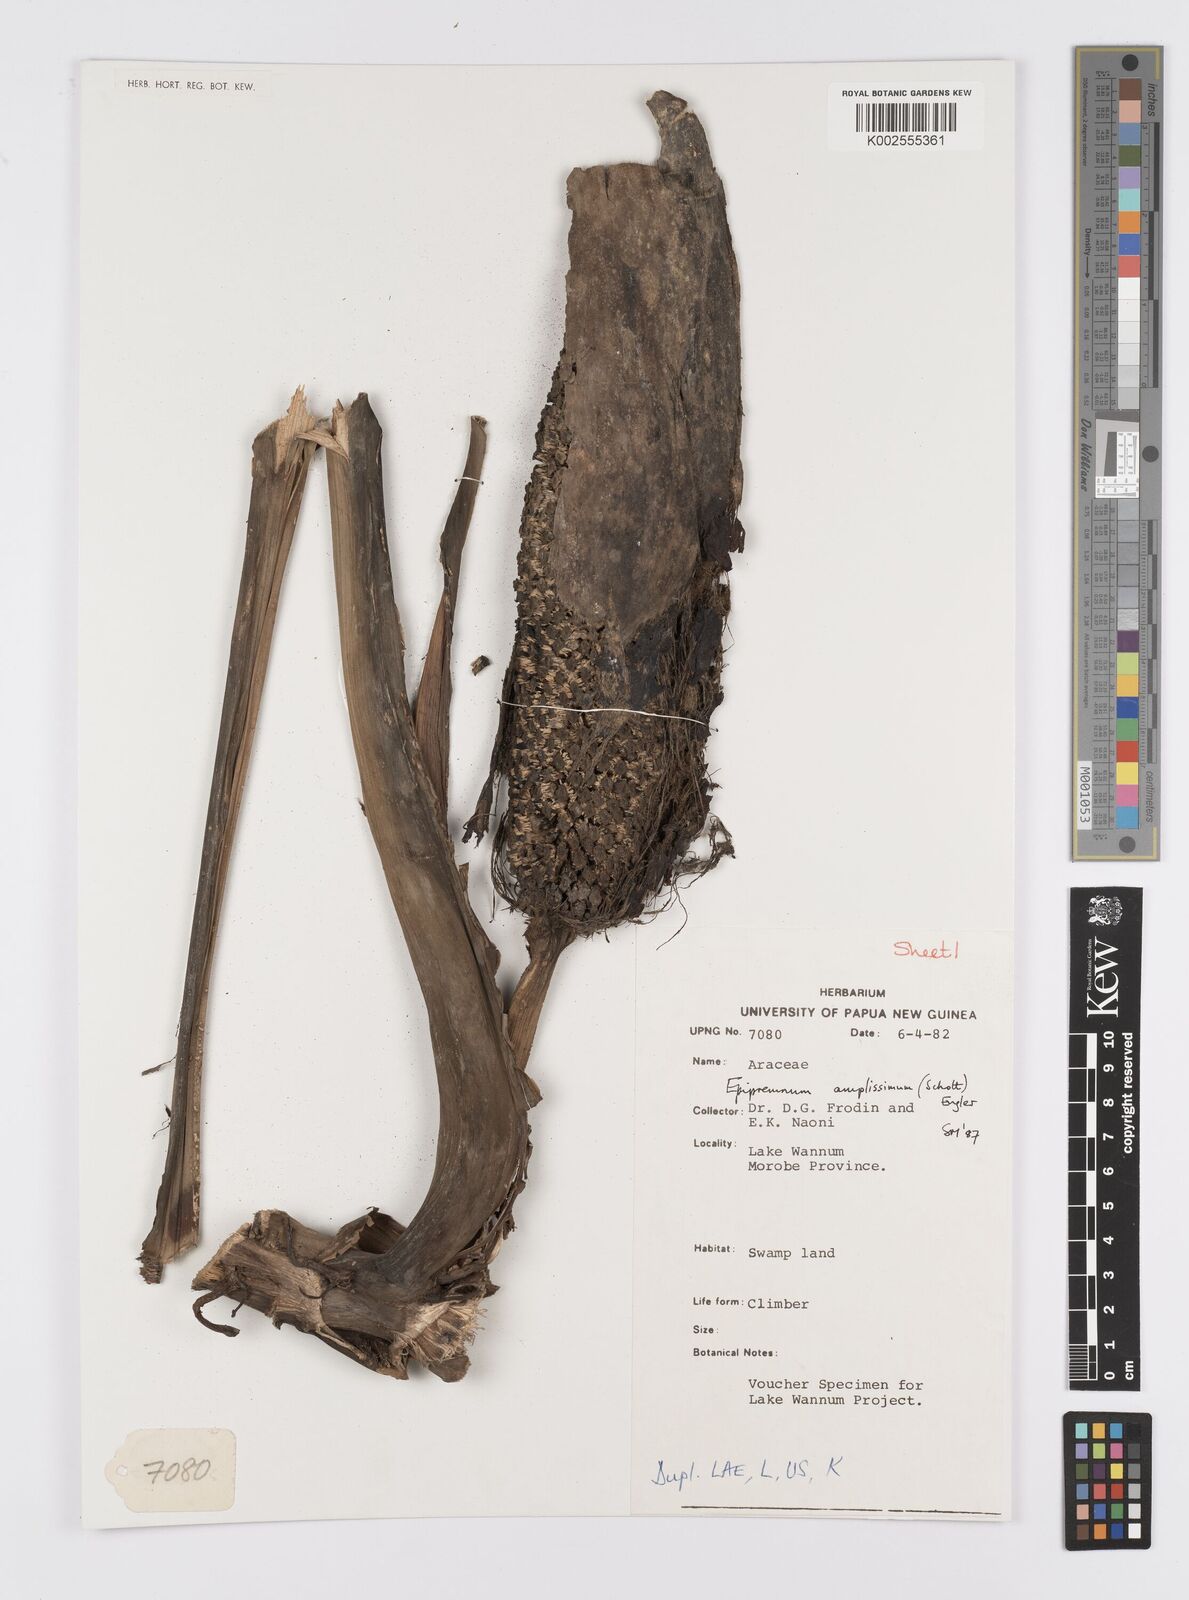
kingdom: Plantae
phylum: Tracheophyta
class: Liliopsida
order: Alismatales
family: Araceae
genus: Epipremnum
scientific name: Epipremnum amplissimum
